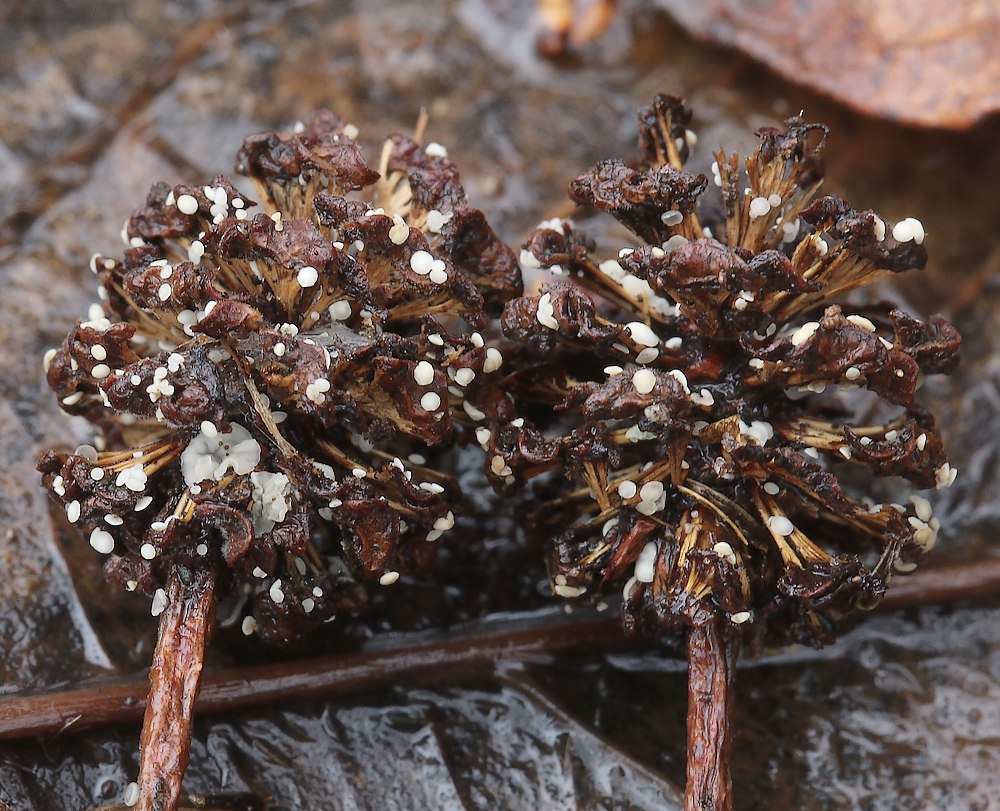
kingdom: Fungi
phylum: Ascomycota
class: Leotiomycetes
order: Helotiales
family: Mollisiaceae
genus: Mollisia
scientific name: Mollisia amenticola
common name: ellekogle-gråskive
